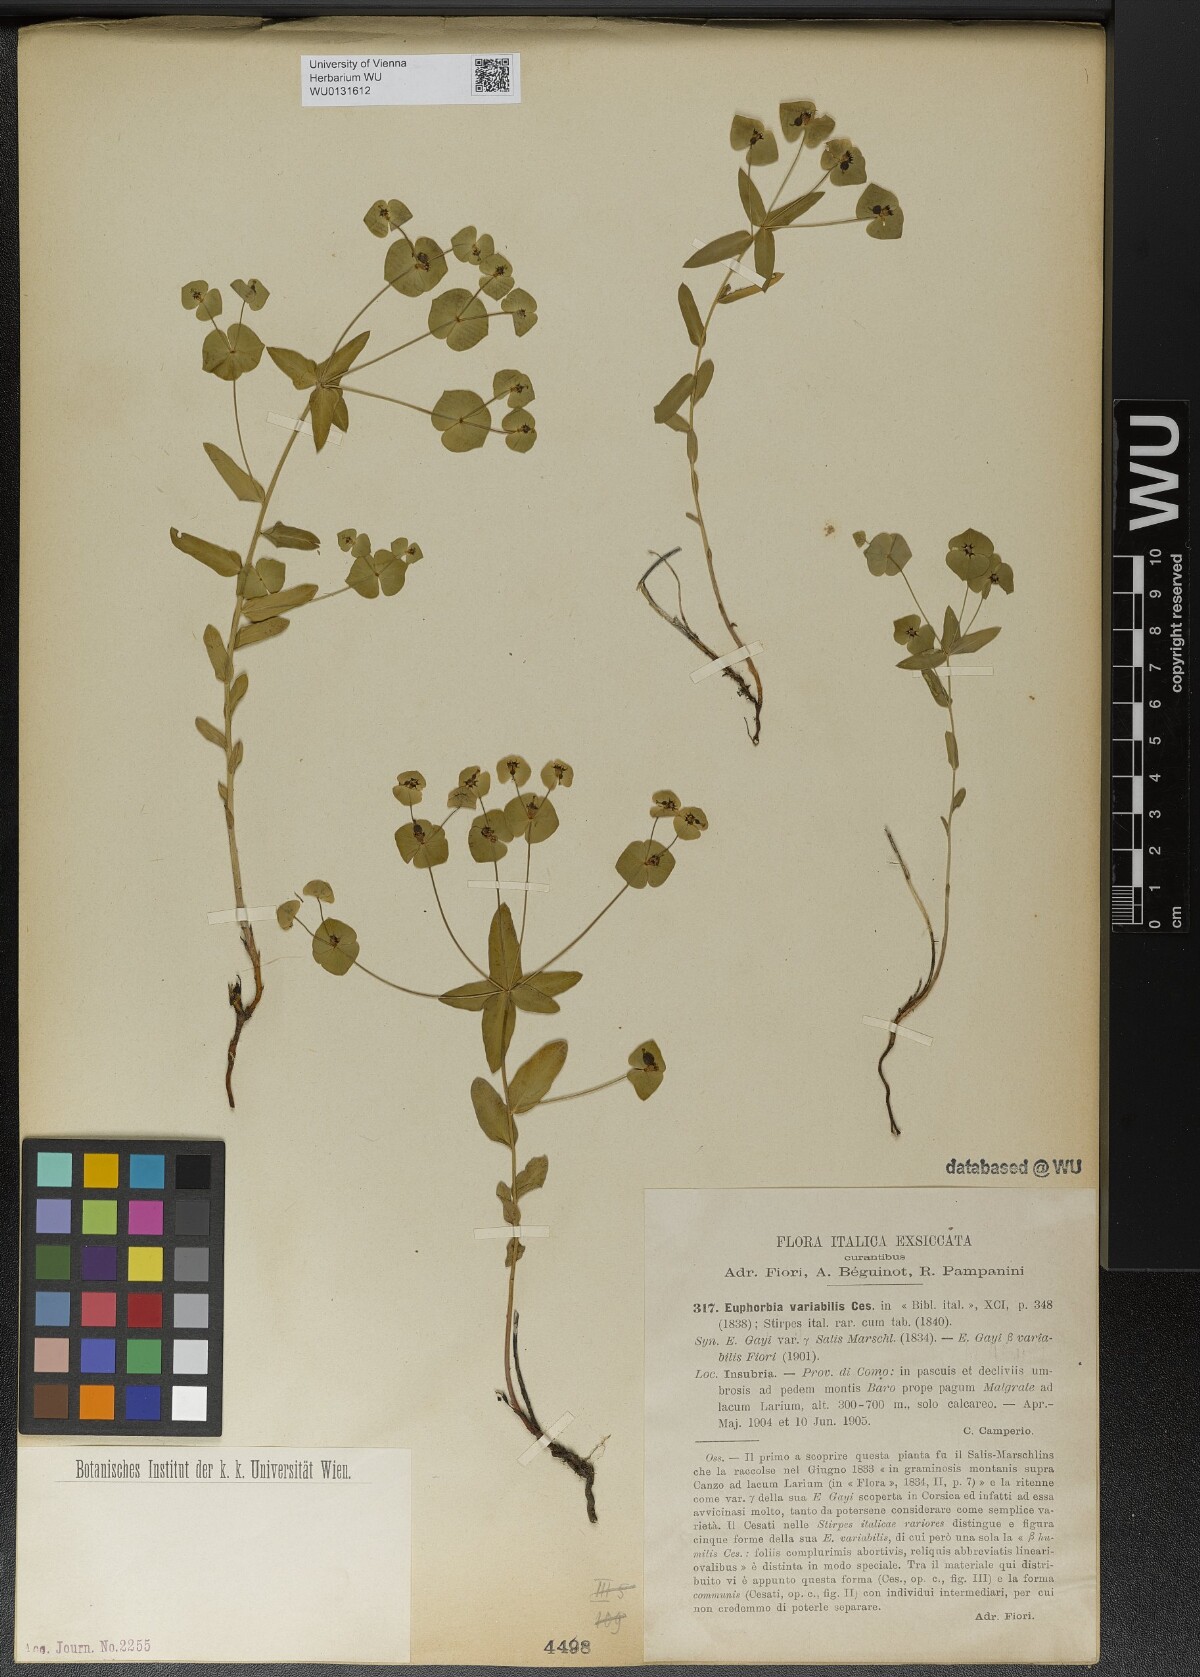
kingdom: Plantae
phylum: Tracheophyta
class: Magnoliopsida
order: Malpighiales
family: Euphorbiaceae
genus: Euphorbia
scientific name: Euphorbia variabilis
